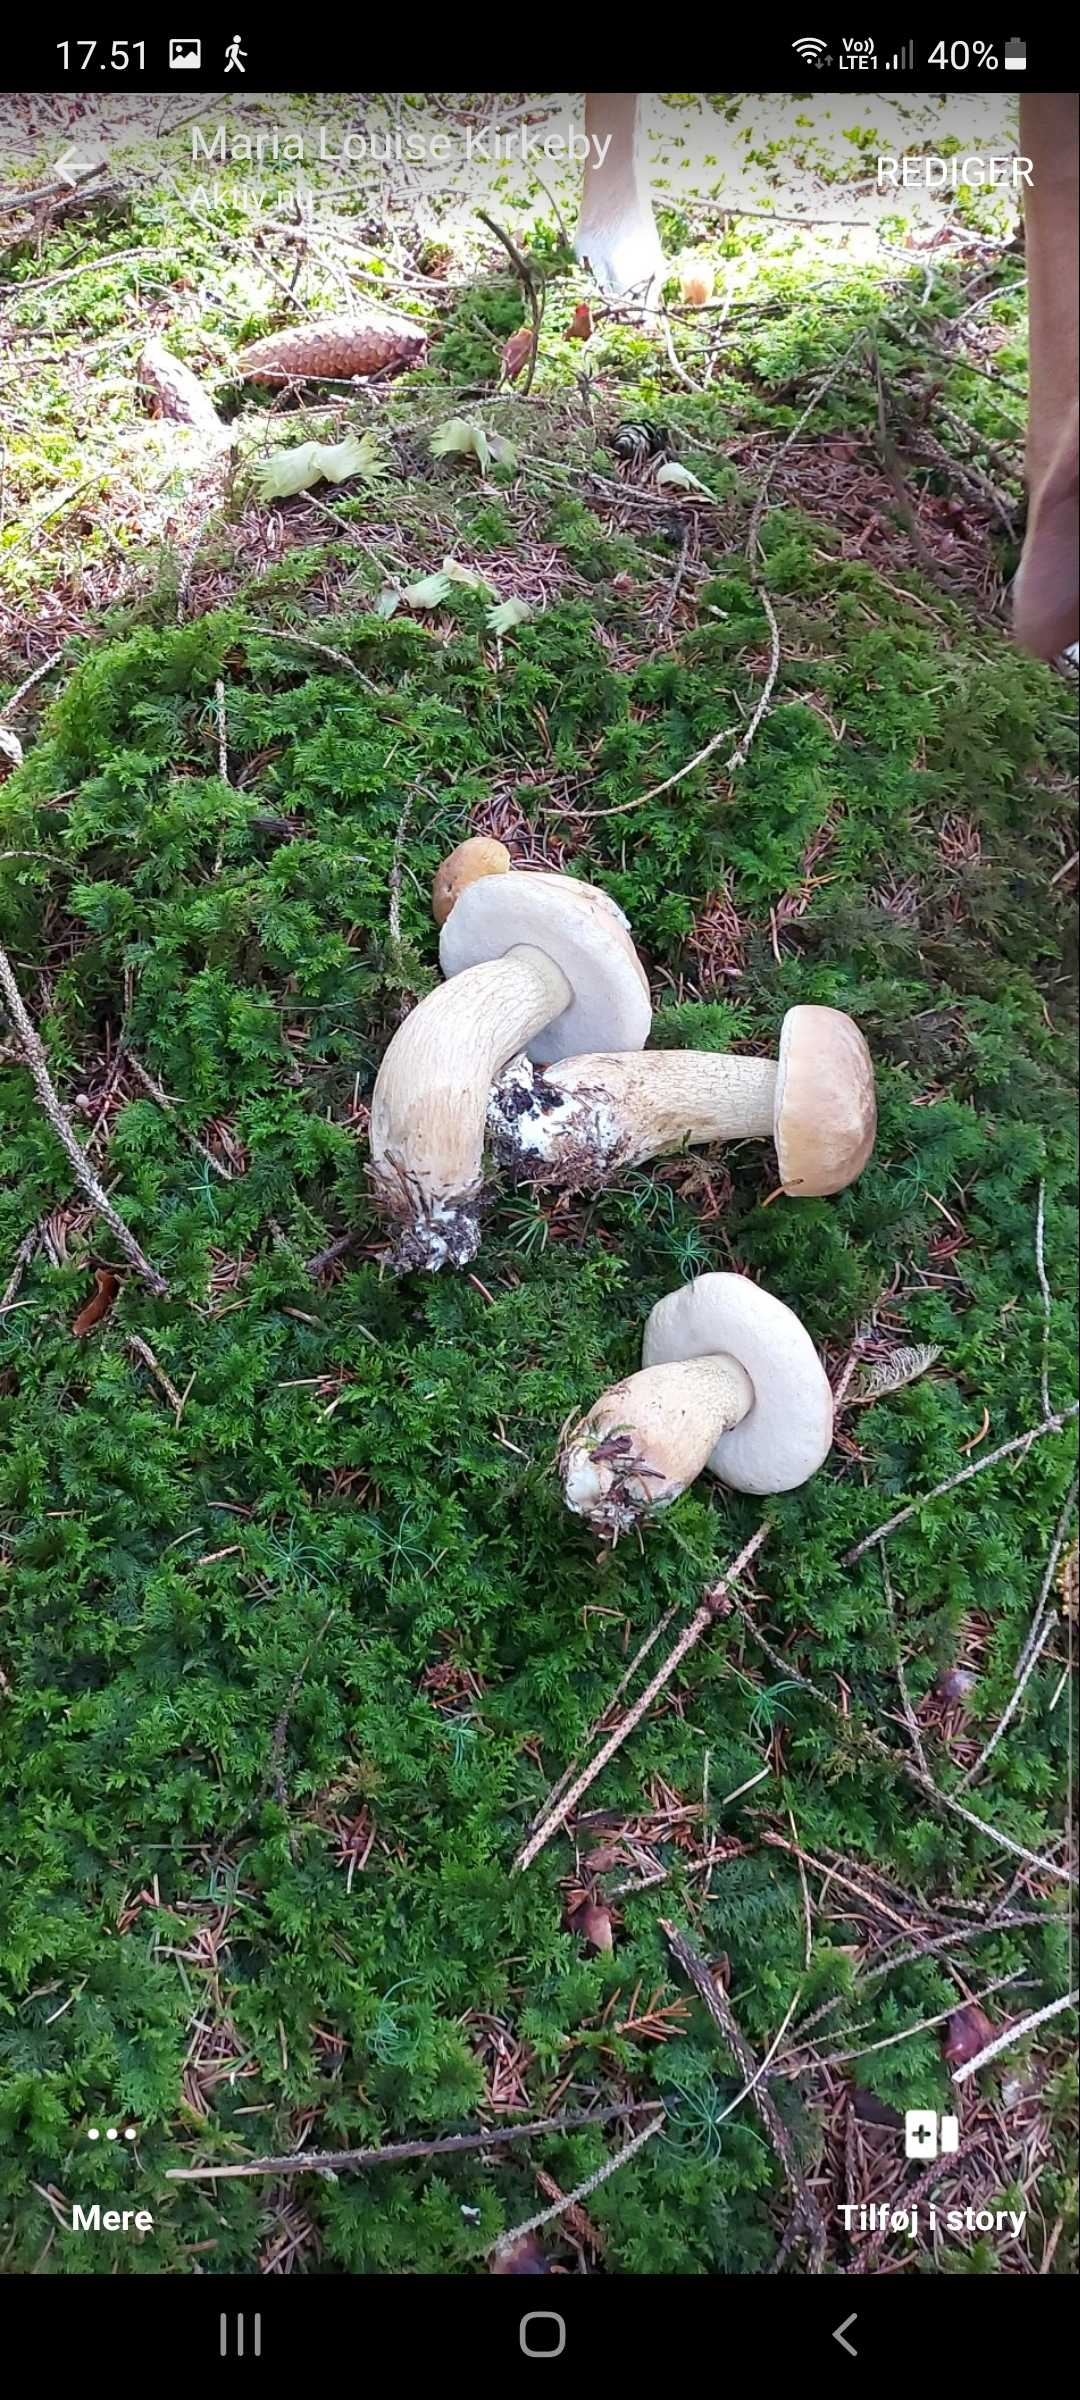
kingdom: Fungi
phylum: Basidiomycota
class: Agaricomycetes
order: Boletales
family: Boletaceae
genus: Tylopilus
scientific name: Tylopilus felleus
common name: galderørhat
